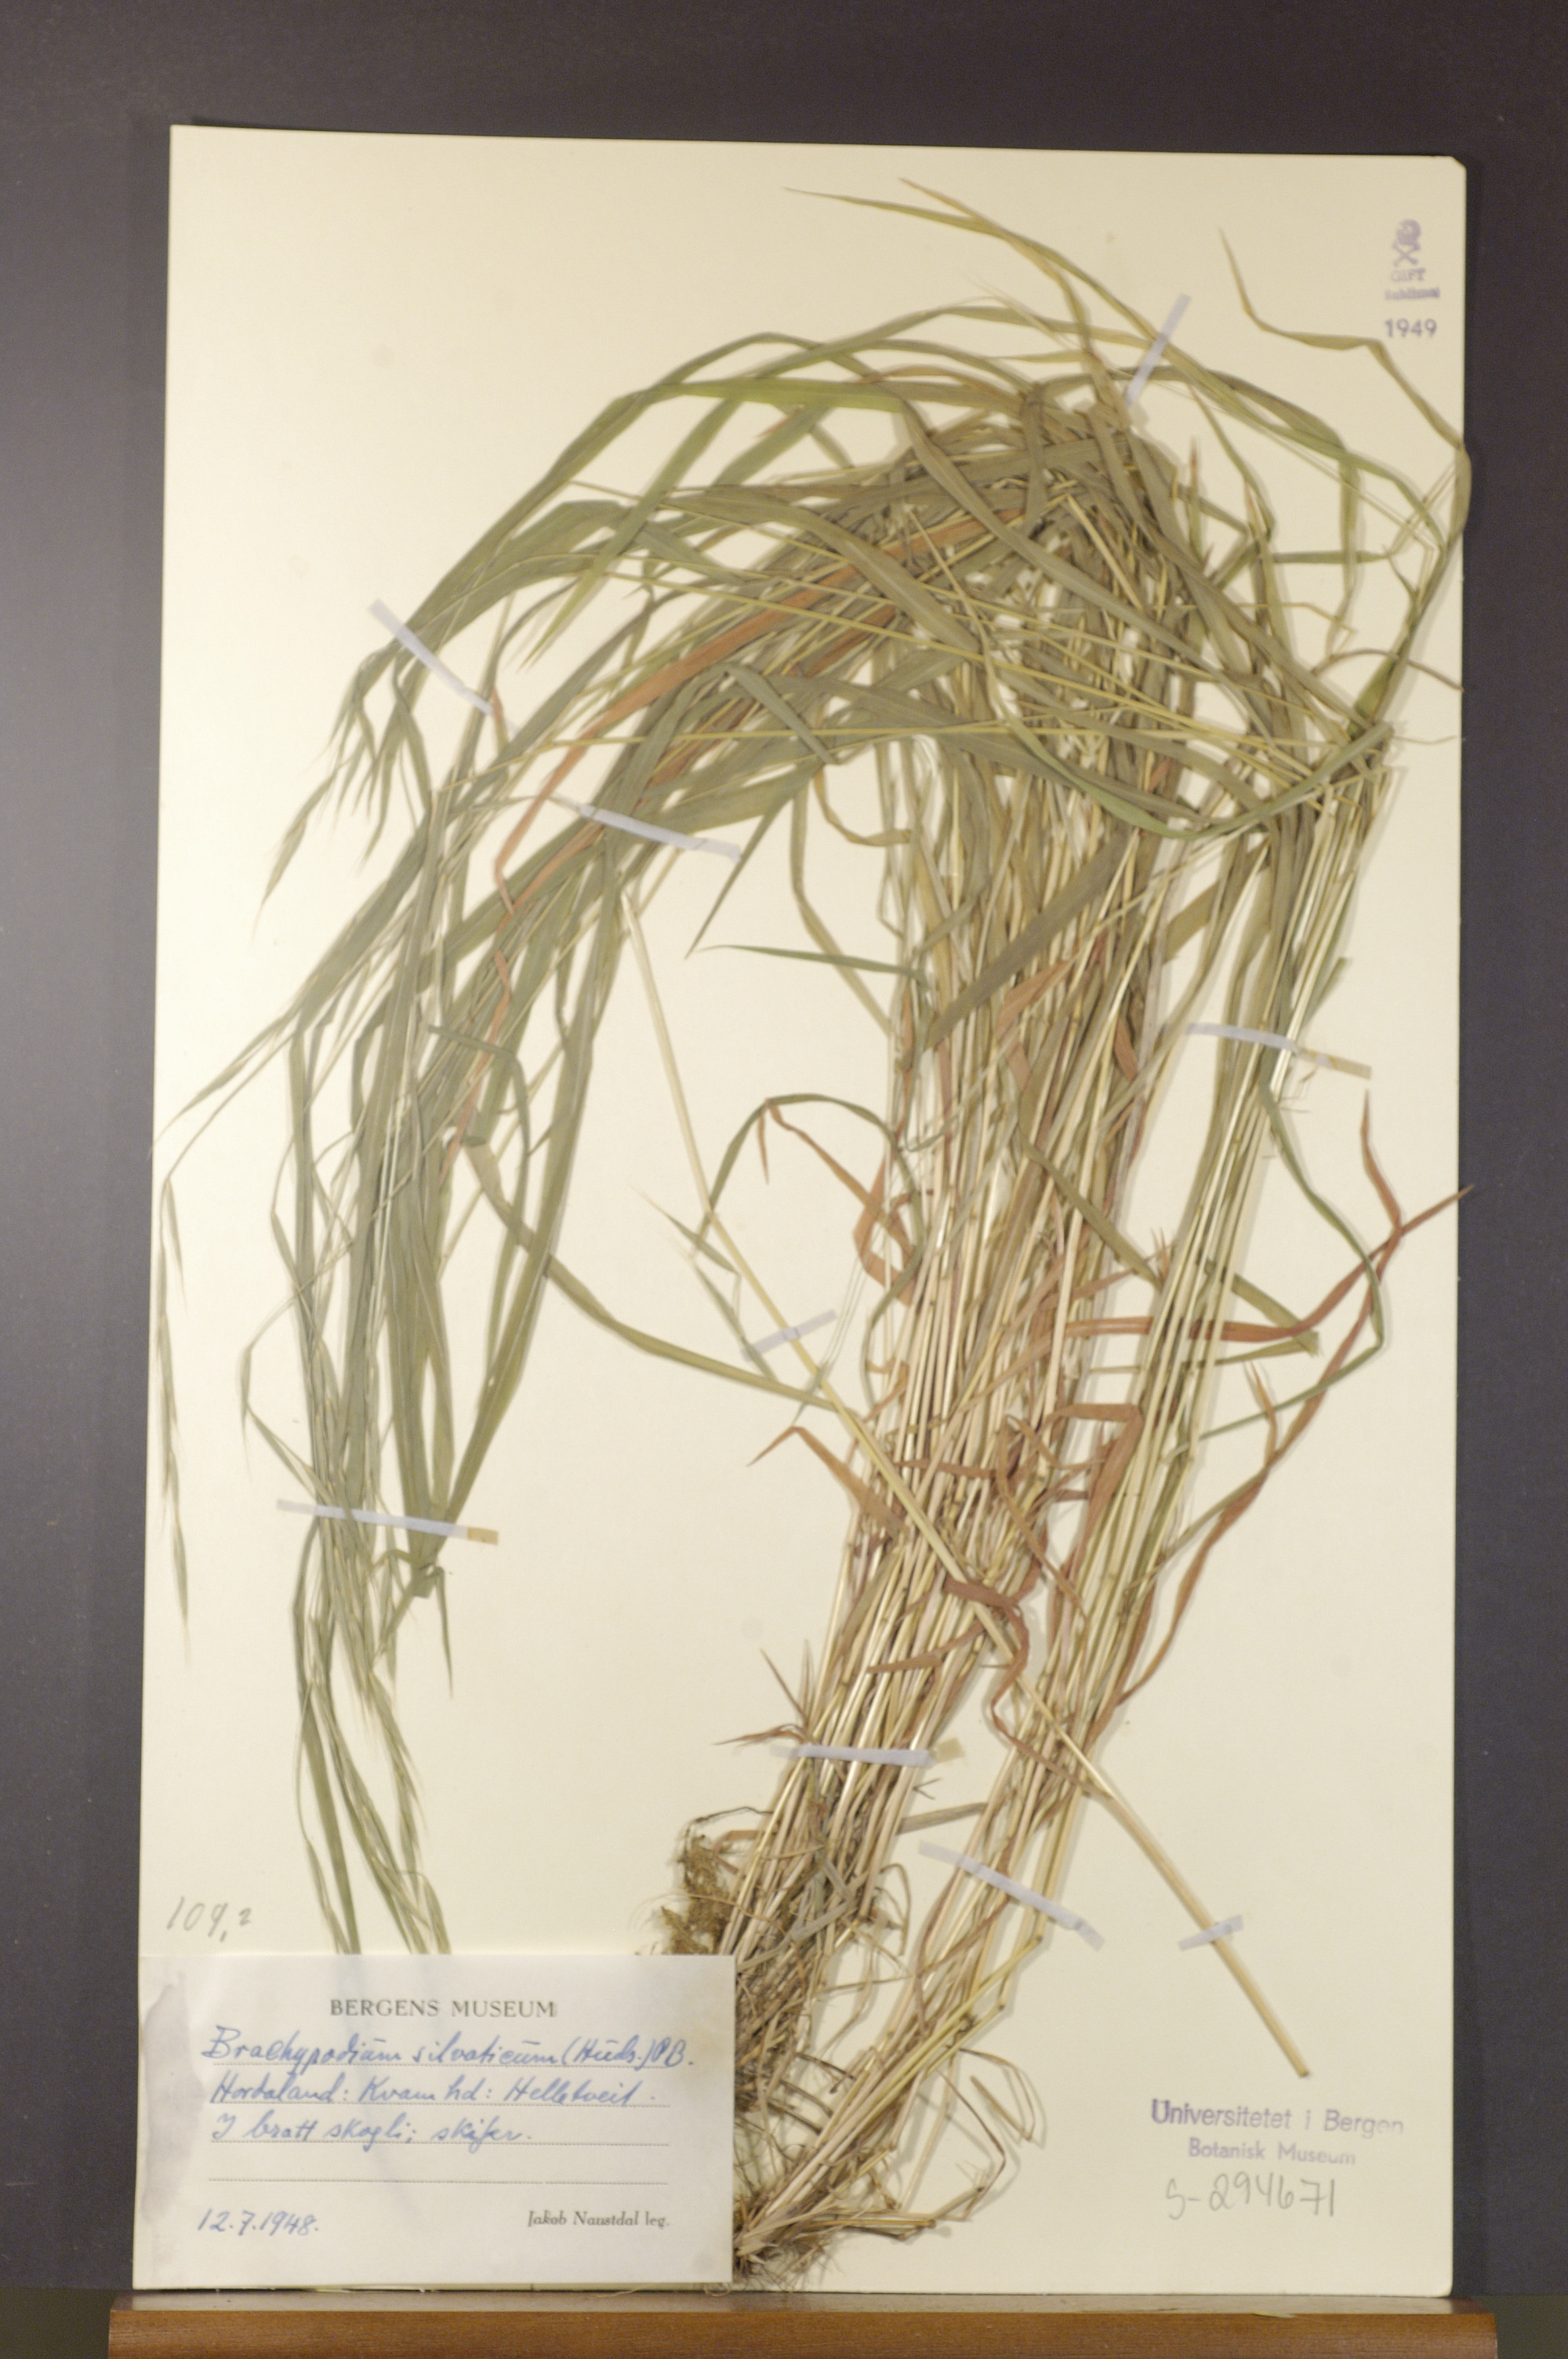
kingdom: Plantae
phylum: Tracheophyta
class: Liliopsida
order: Poales
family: Poaceae
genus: Brachypodium
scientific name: Brachypodium sylvaticum
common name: False-brome
